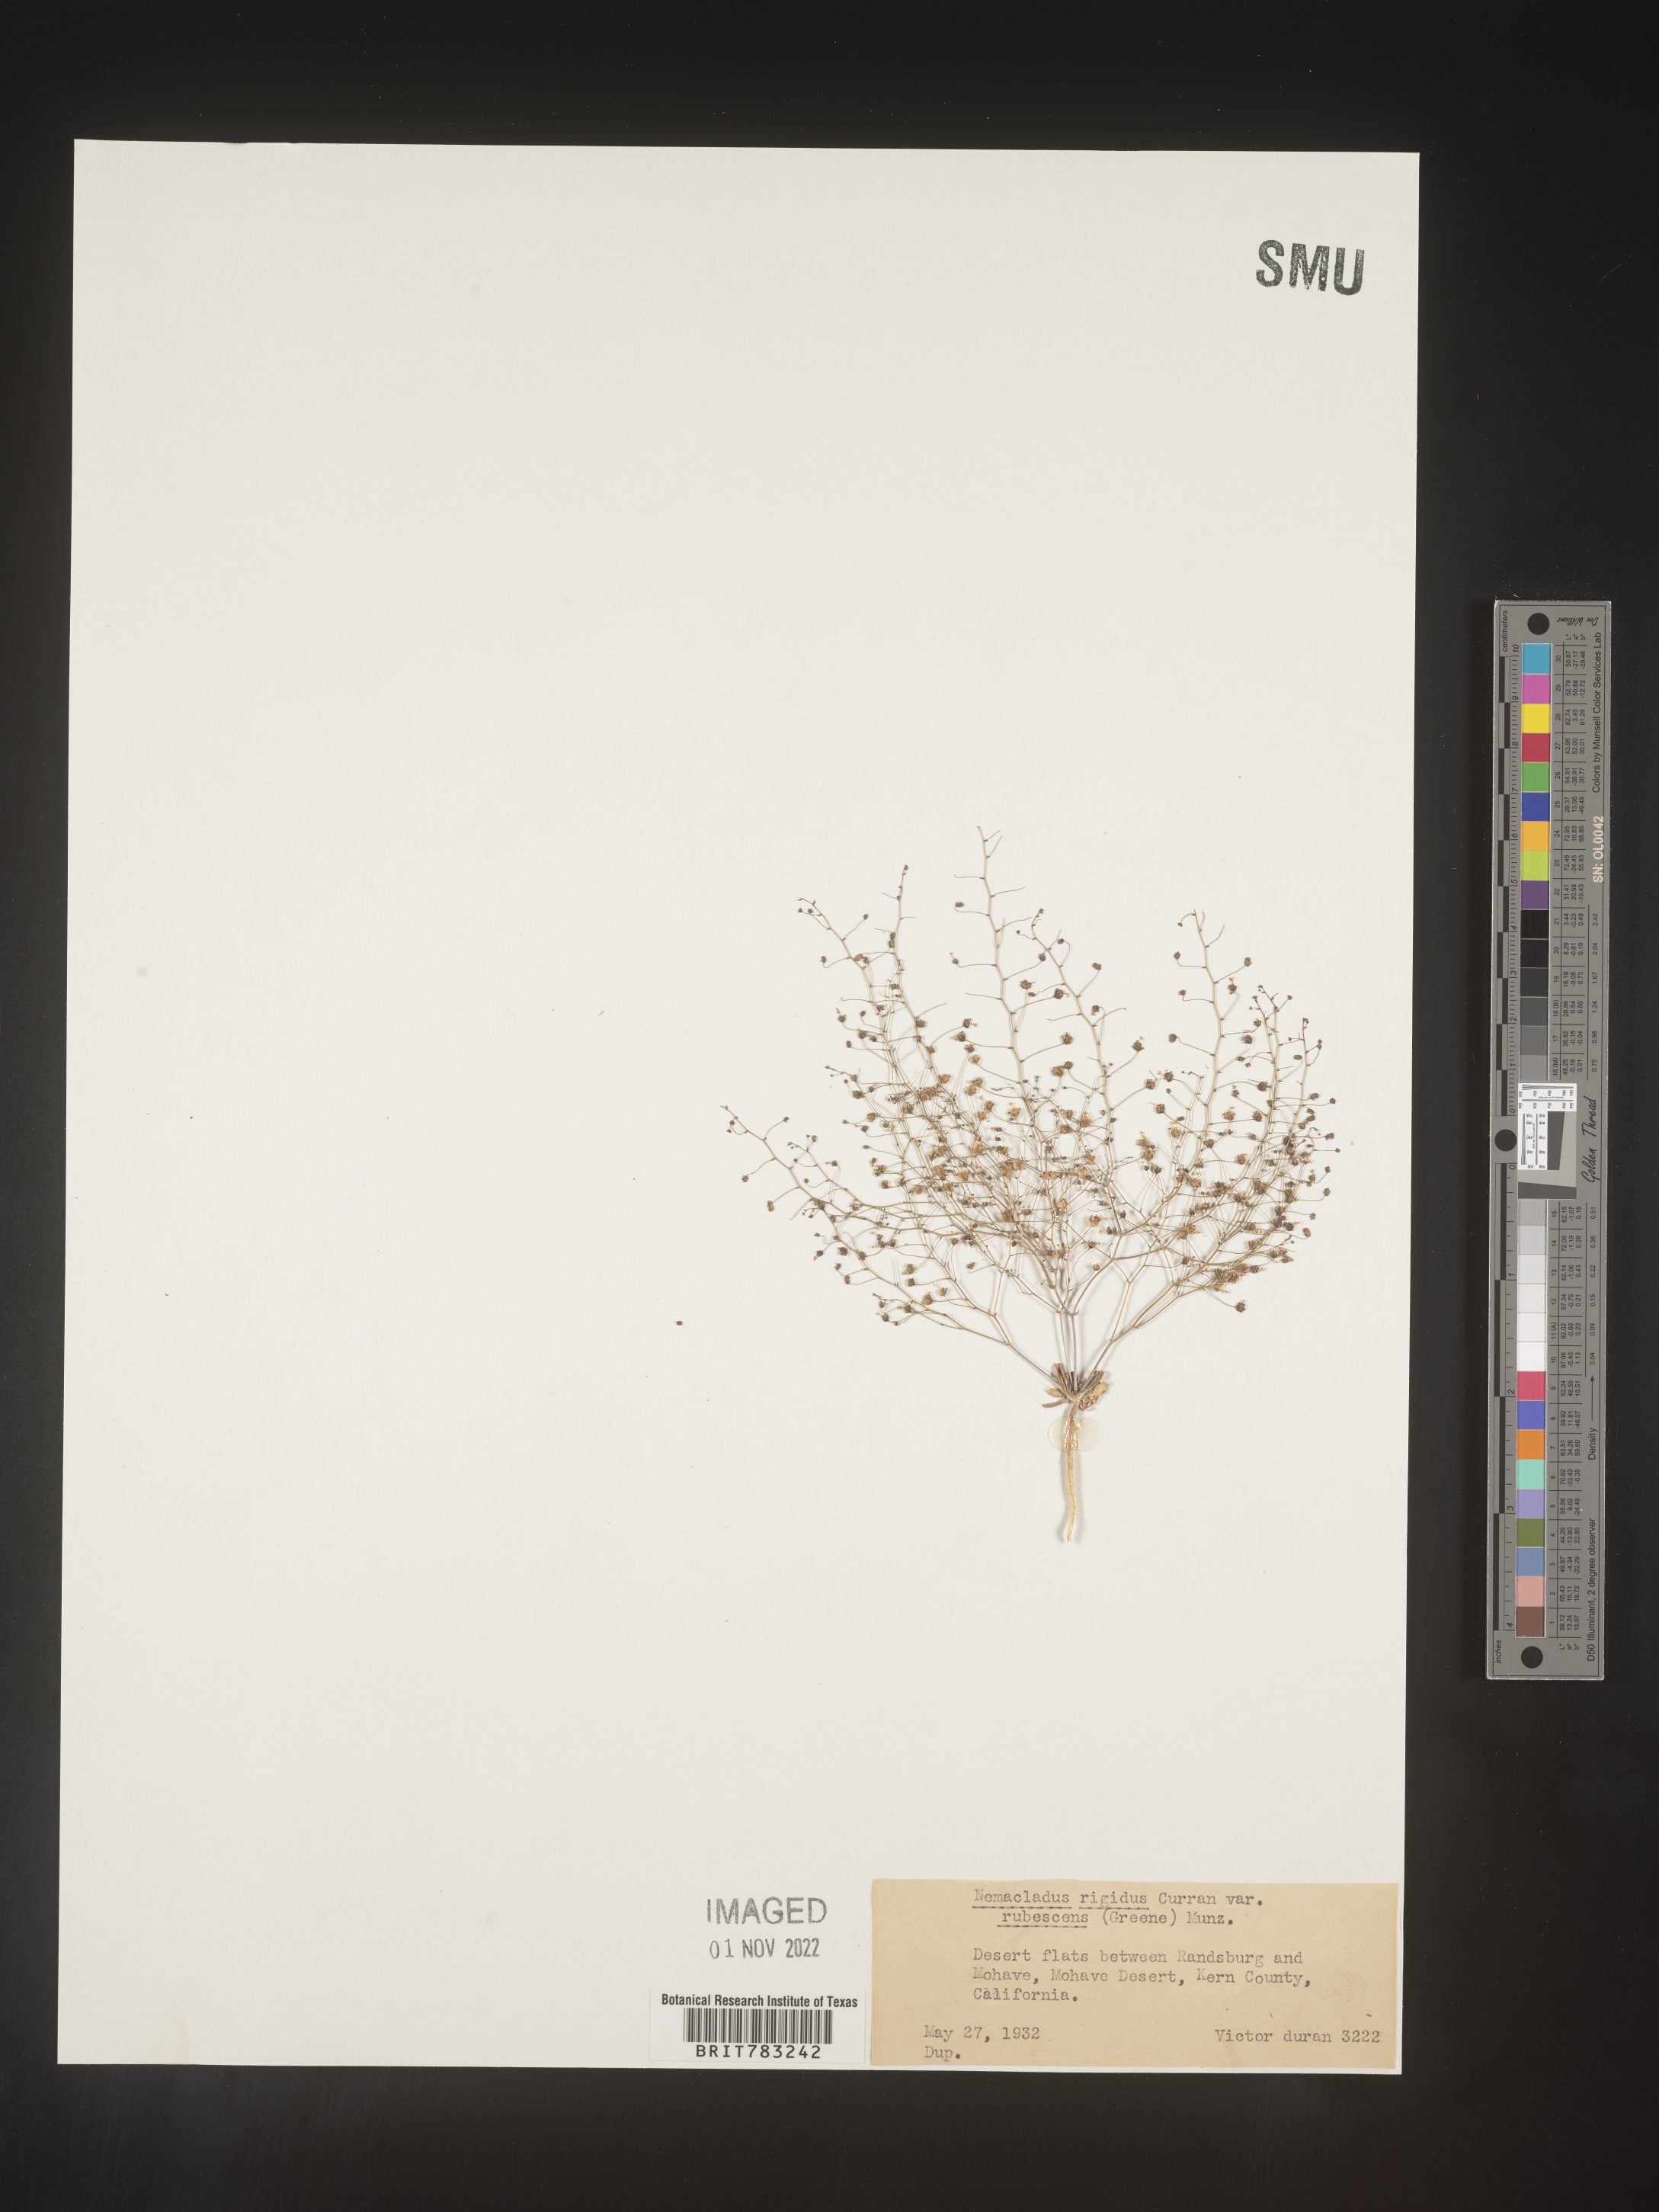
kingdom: Plantae
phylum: Tracheophyta
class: Magnoliopsida
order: Asterales
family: Campanulaceae
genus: Nemacladus
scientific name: Nemacladus
